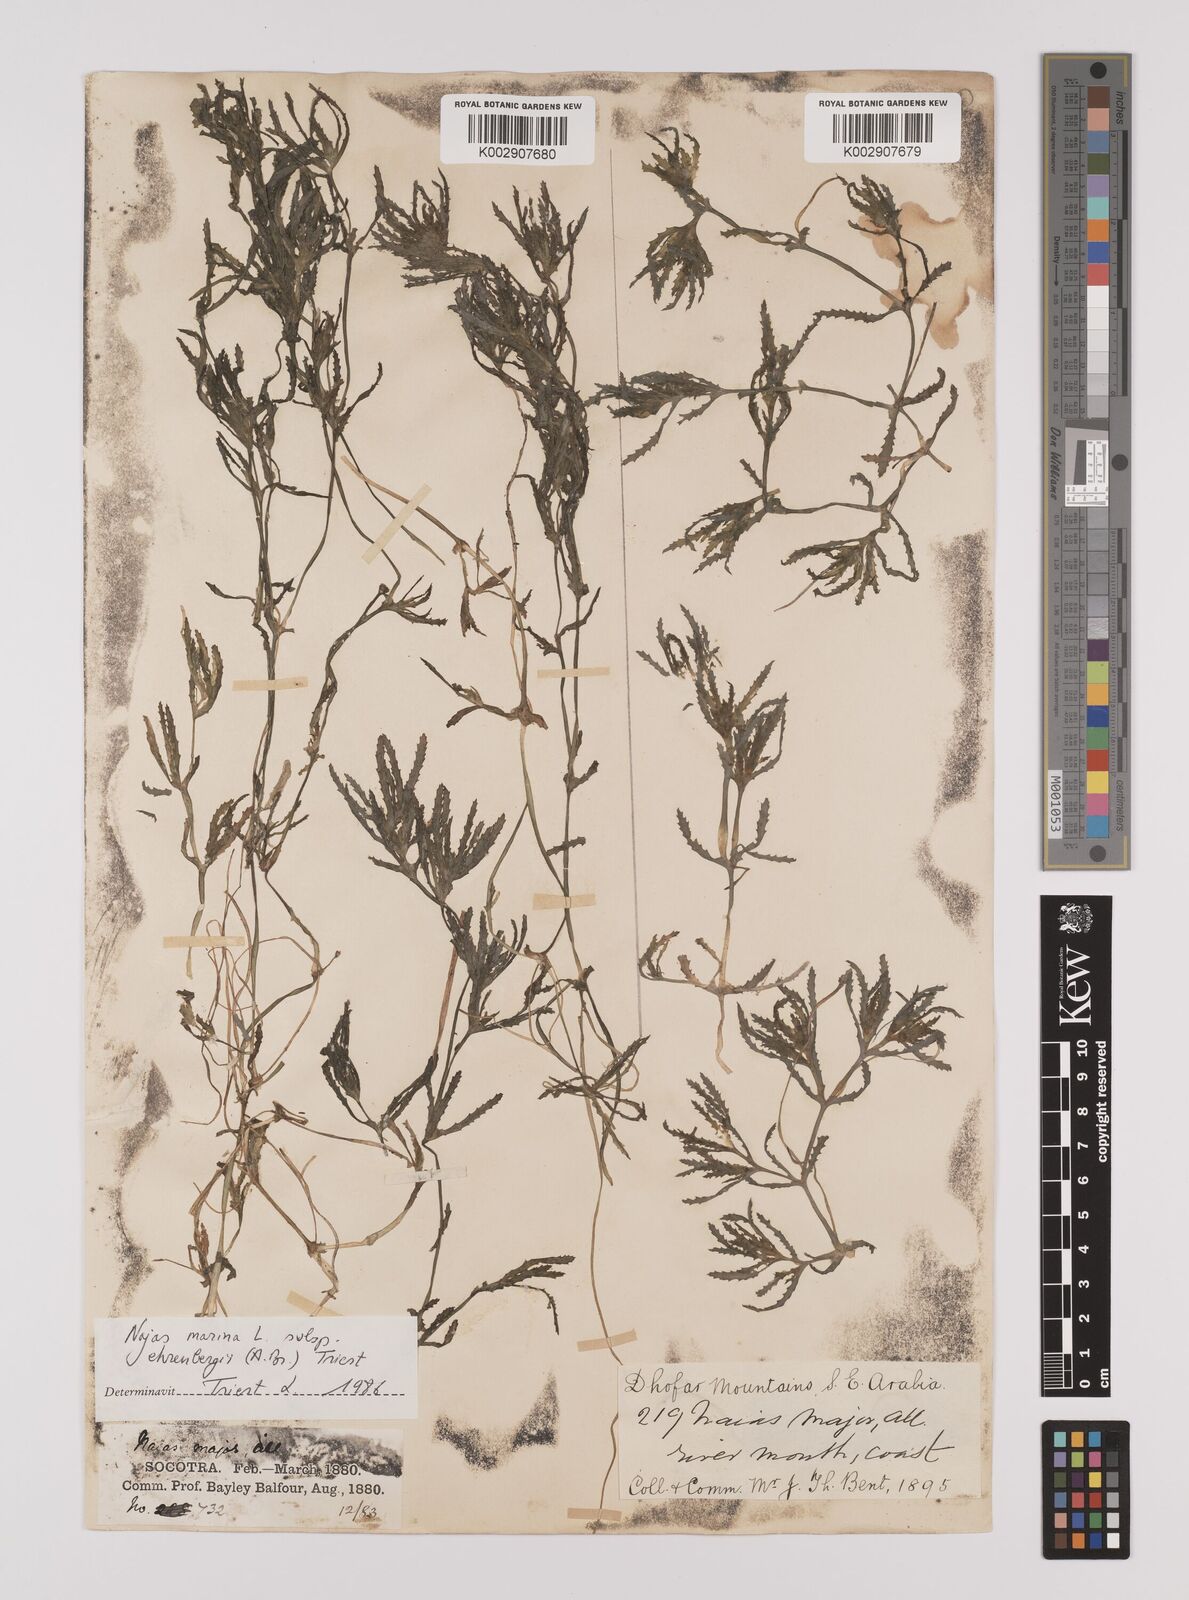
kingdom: Plantae
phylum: Tracheophyta
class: Liliopsida
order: Alismatales
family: Hydrocharitaceae
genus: Najas
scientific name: Najas major
